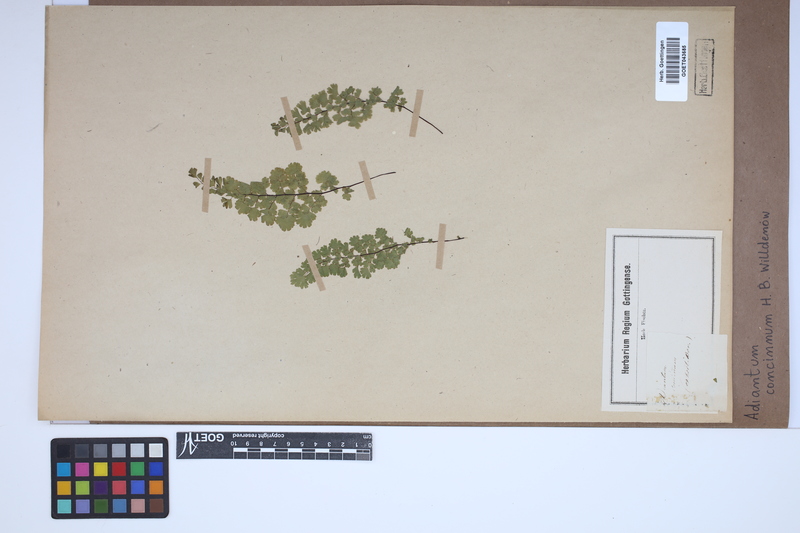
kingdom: Plantae
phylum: Tracheophyta
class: Polypodiopsida
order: Polypodiales
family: Pteridaceae
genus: Adiantum
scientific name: Adiantum concinnum
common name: Brittle maidenhair fern
